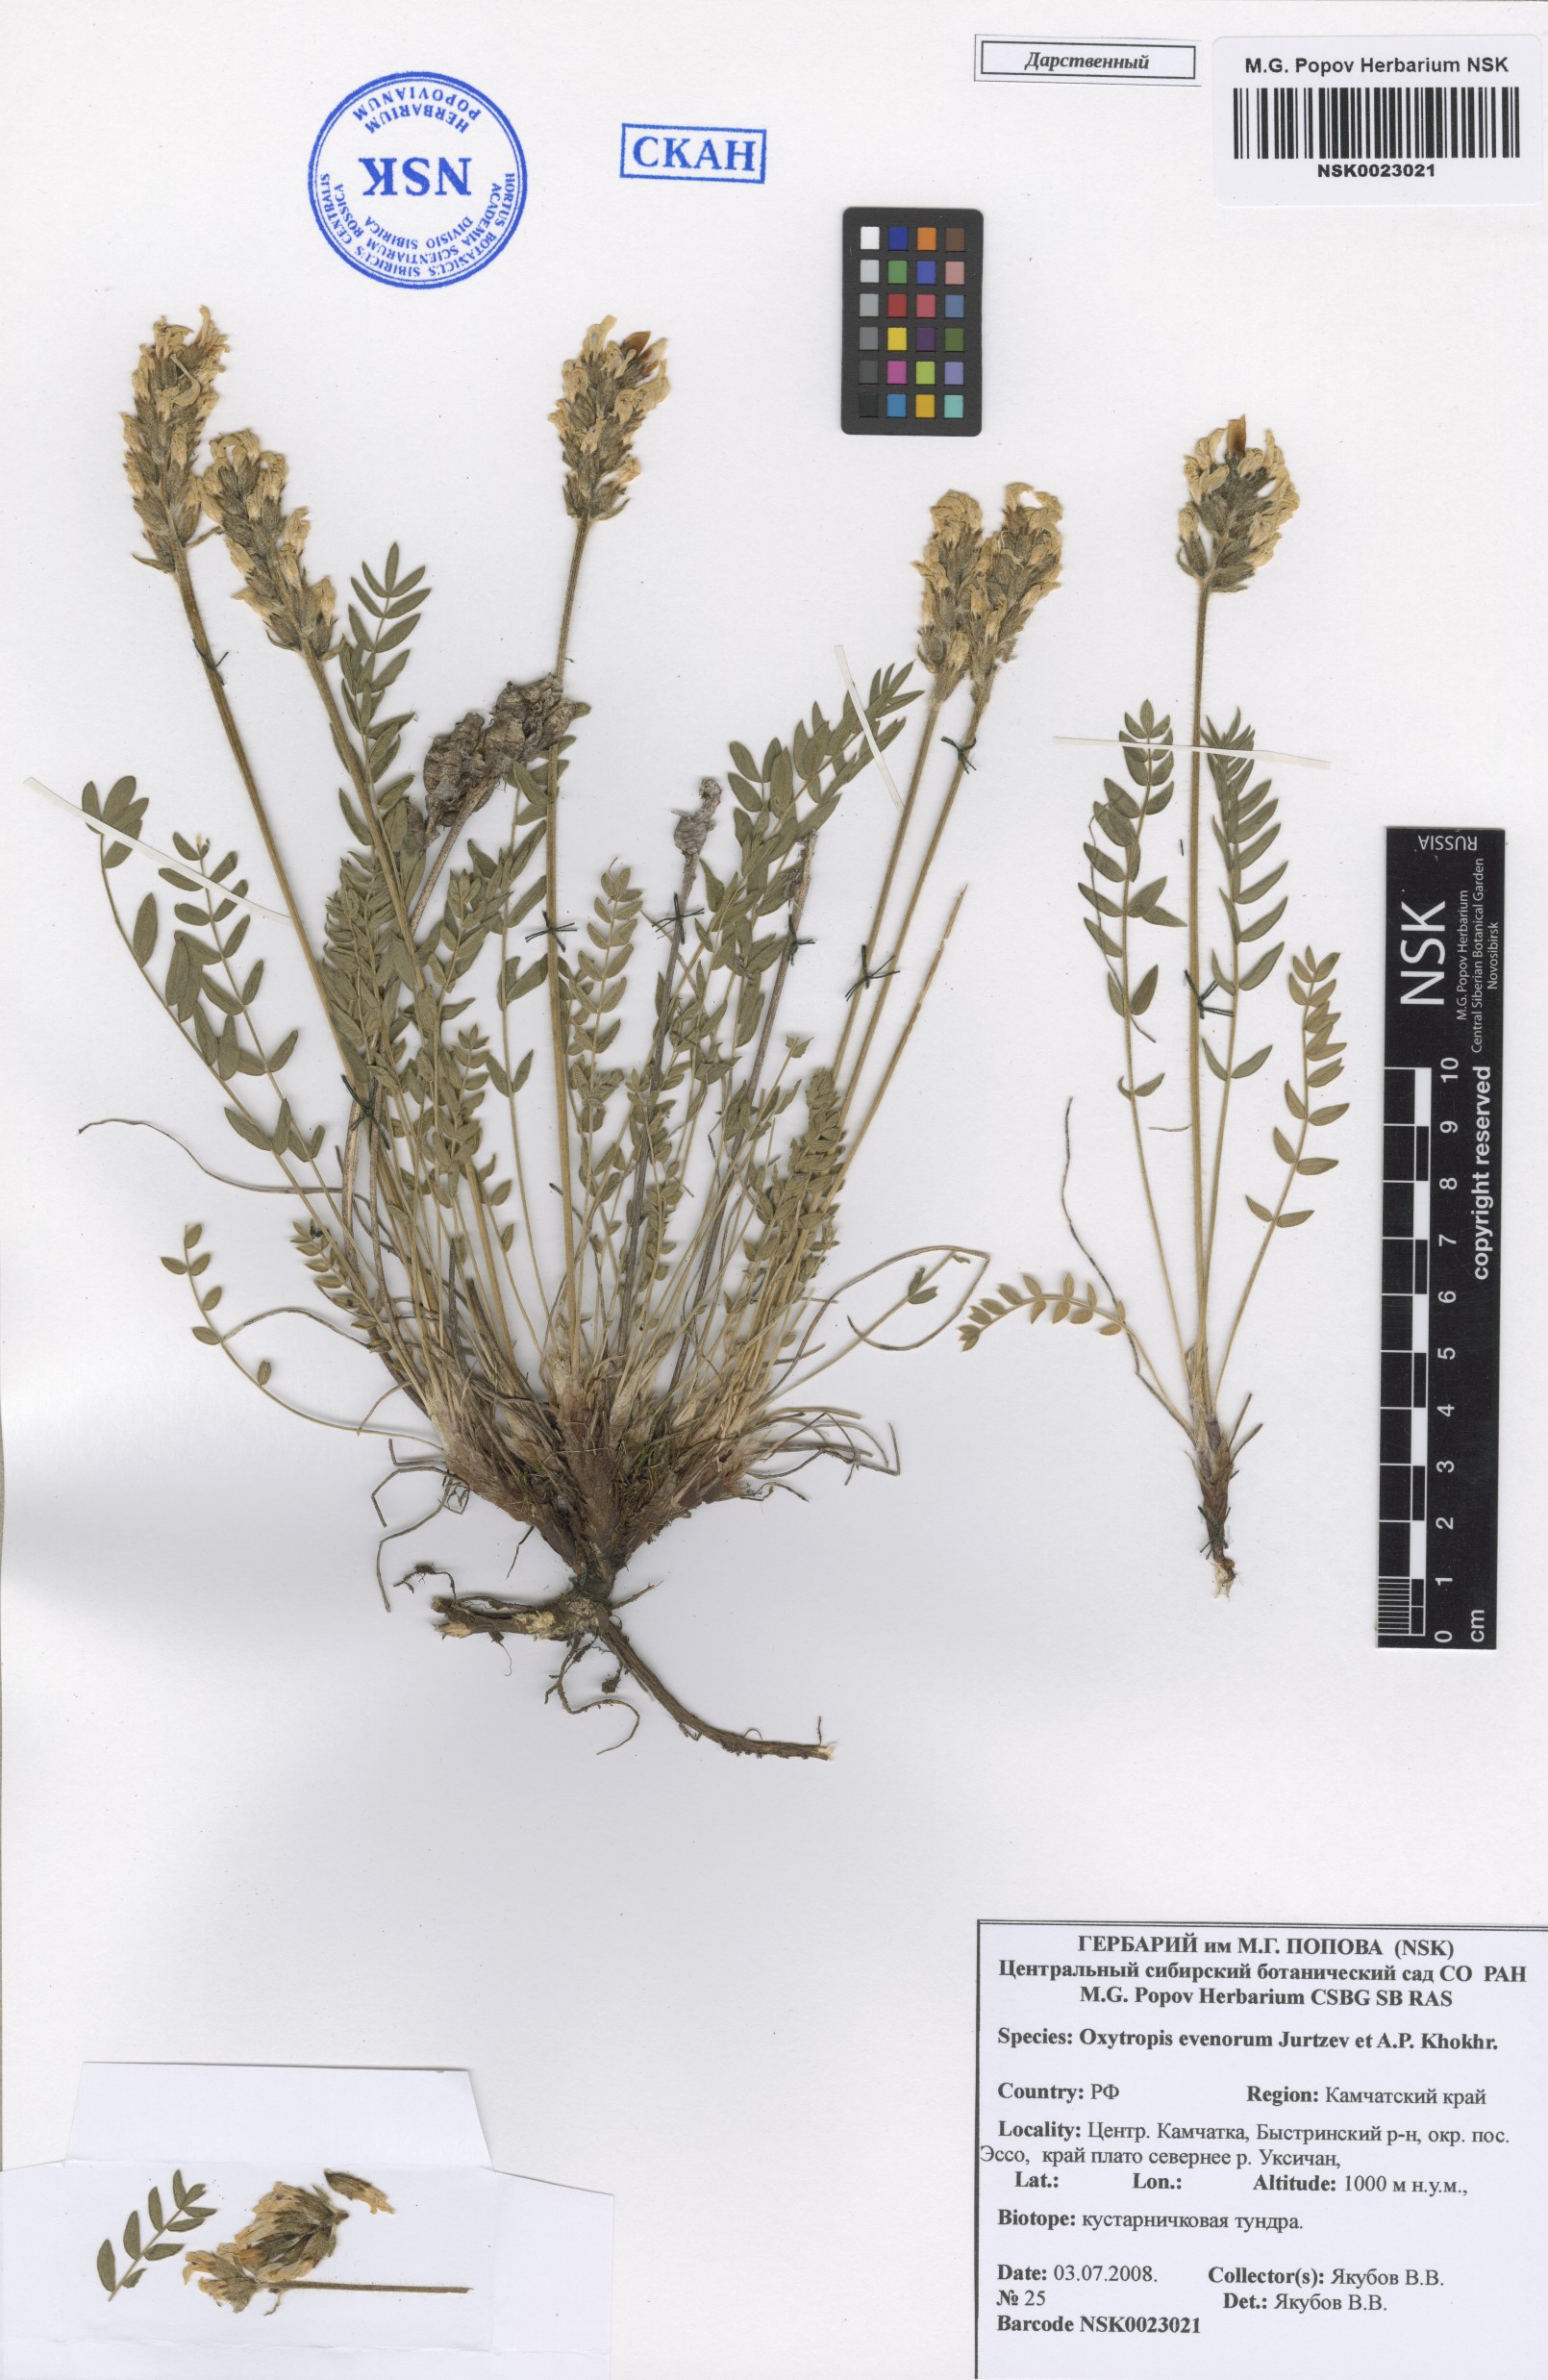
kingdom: Plantae
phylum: Tracheophyta
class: Magnoliopsida
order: Fabales
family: Fabaceae
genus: Oxytropis
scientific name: Oxytropis evenorum
